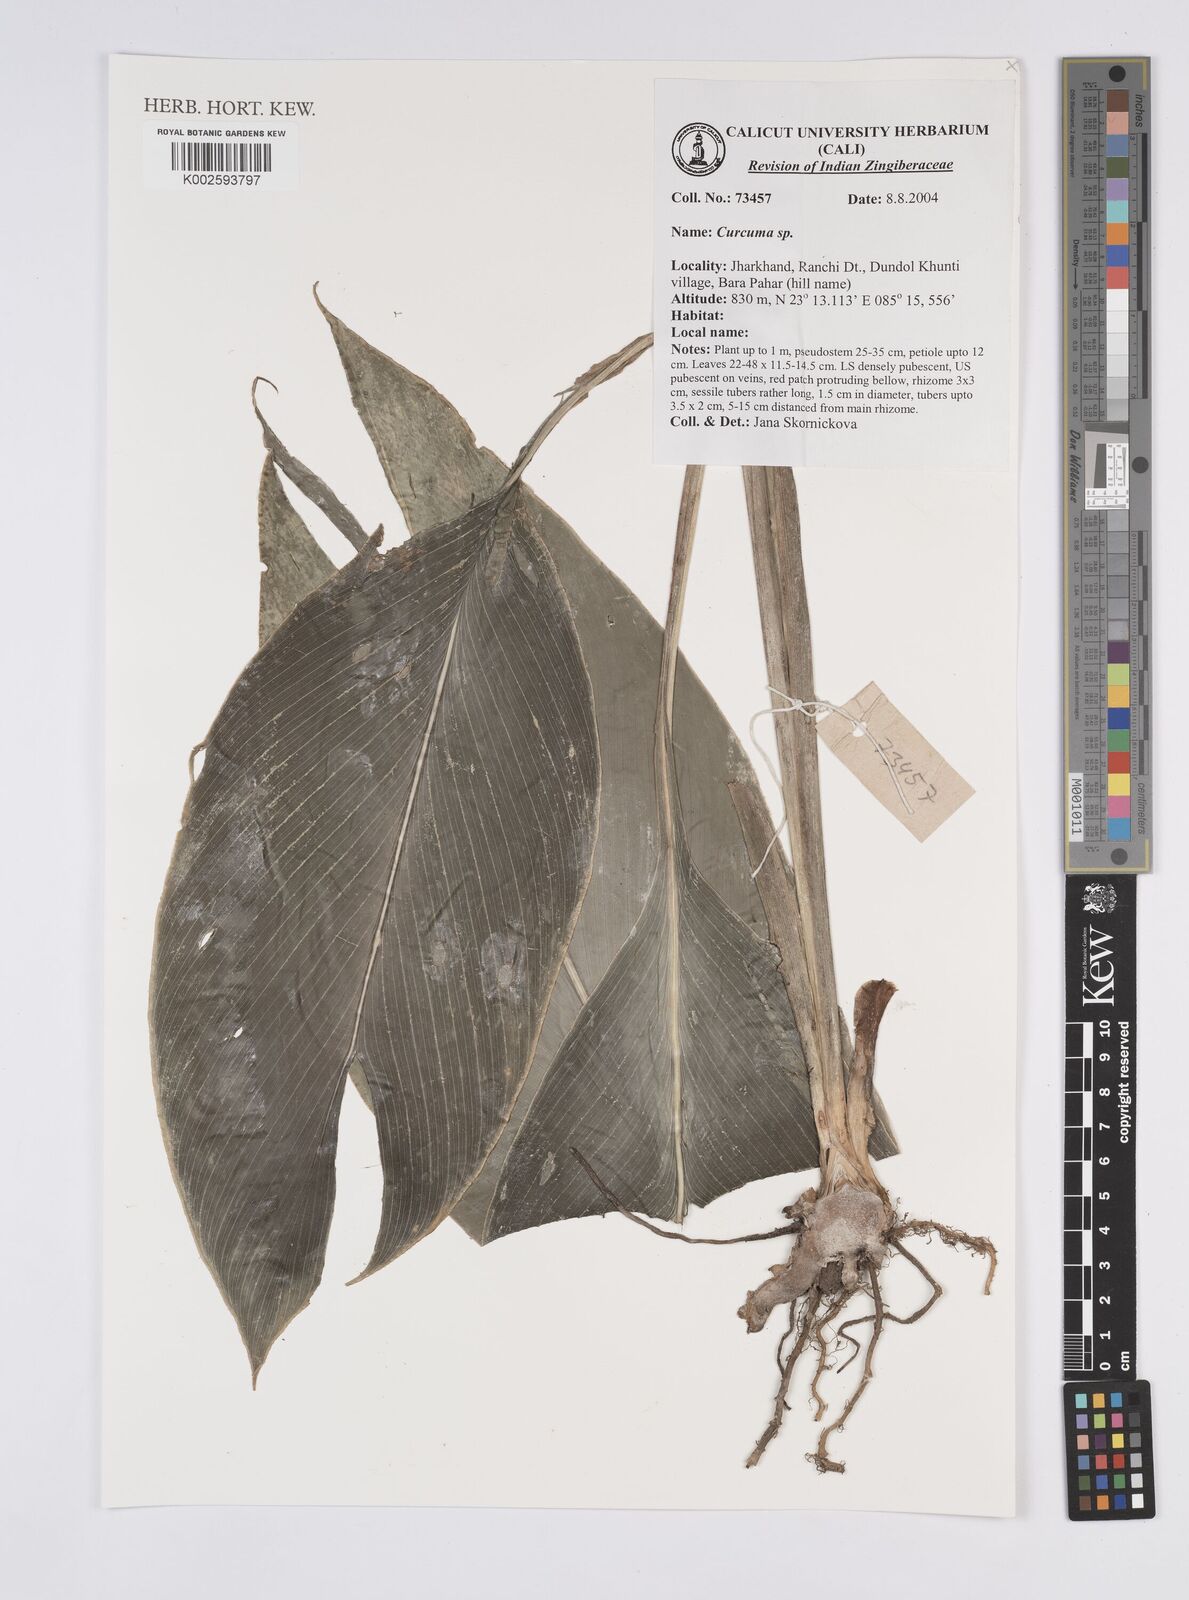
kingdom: Plantae
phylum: Tracheophyta
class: Liliopsida
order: Zingiberales
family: Zingiberaceae
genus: Curcuma
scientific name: Curcuma
